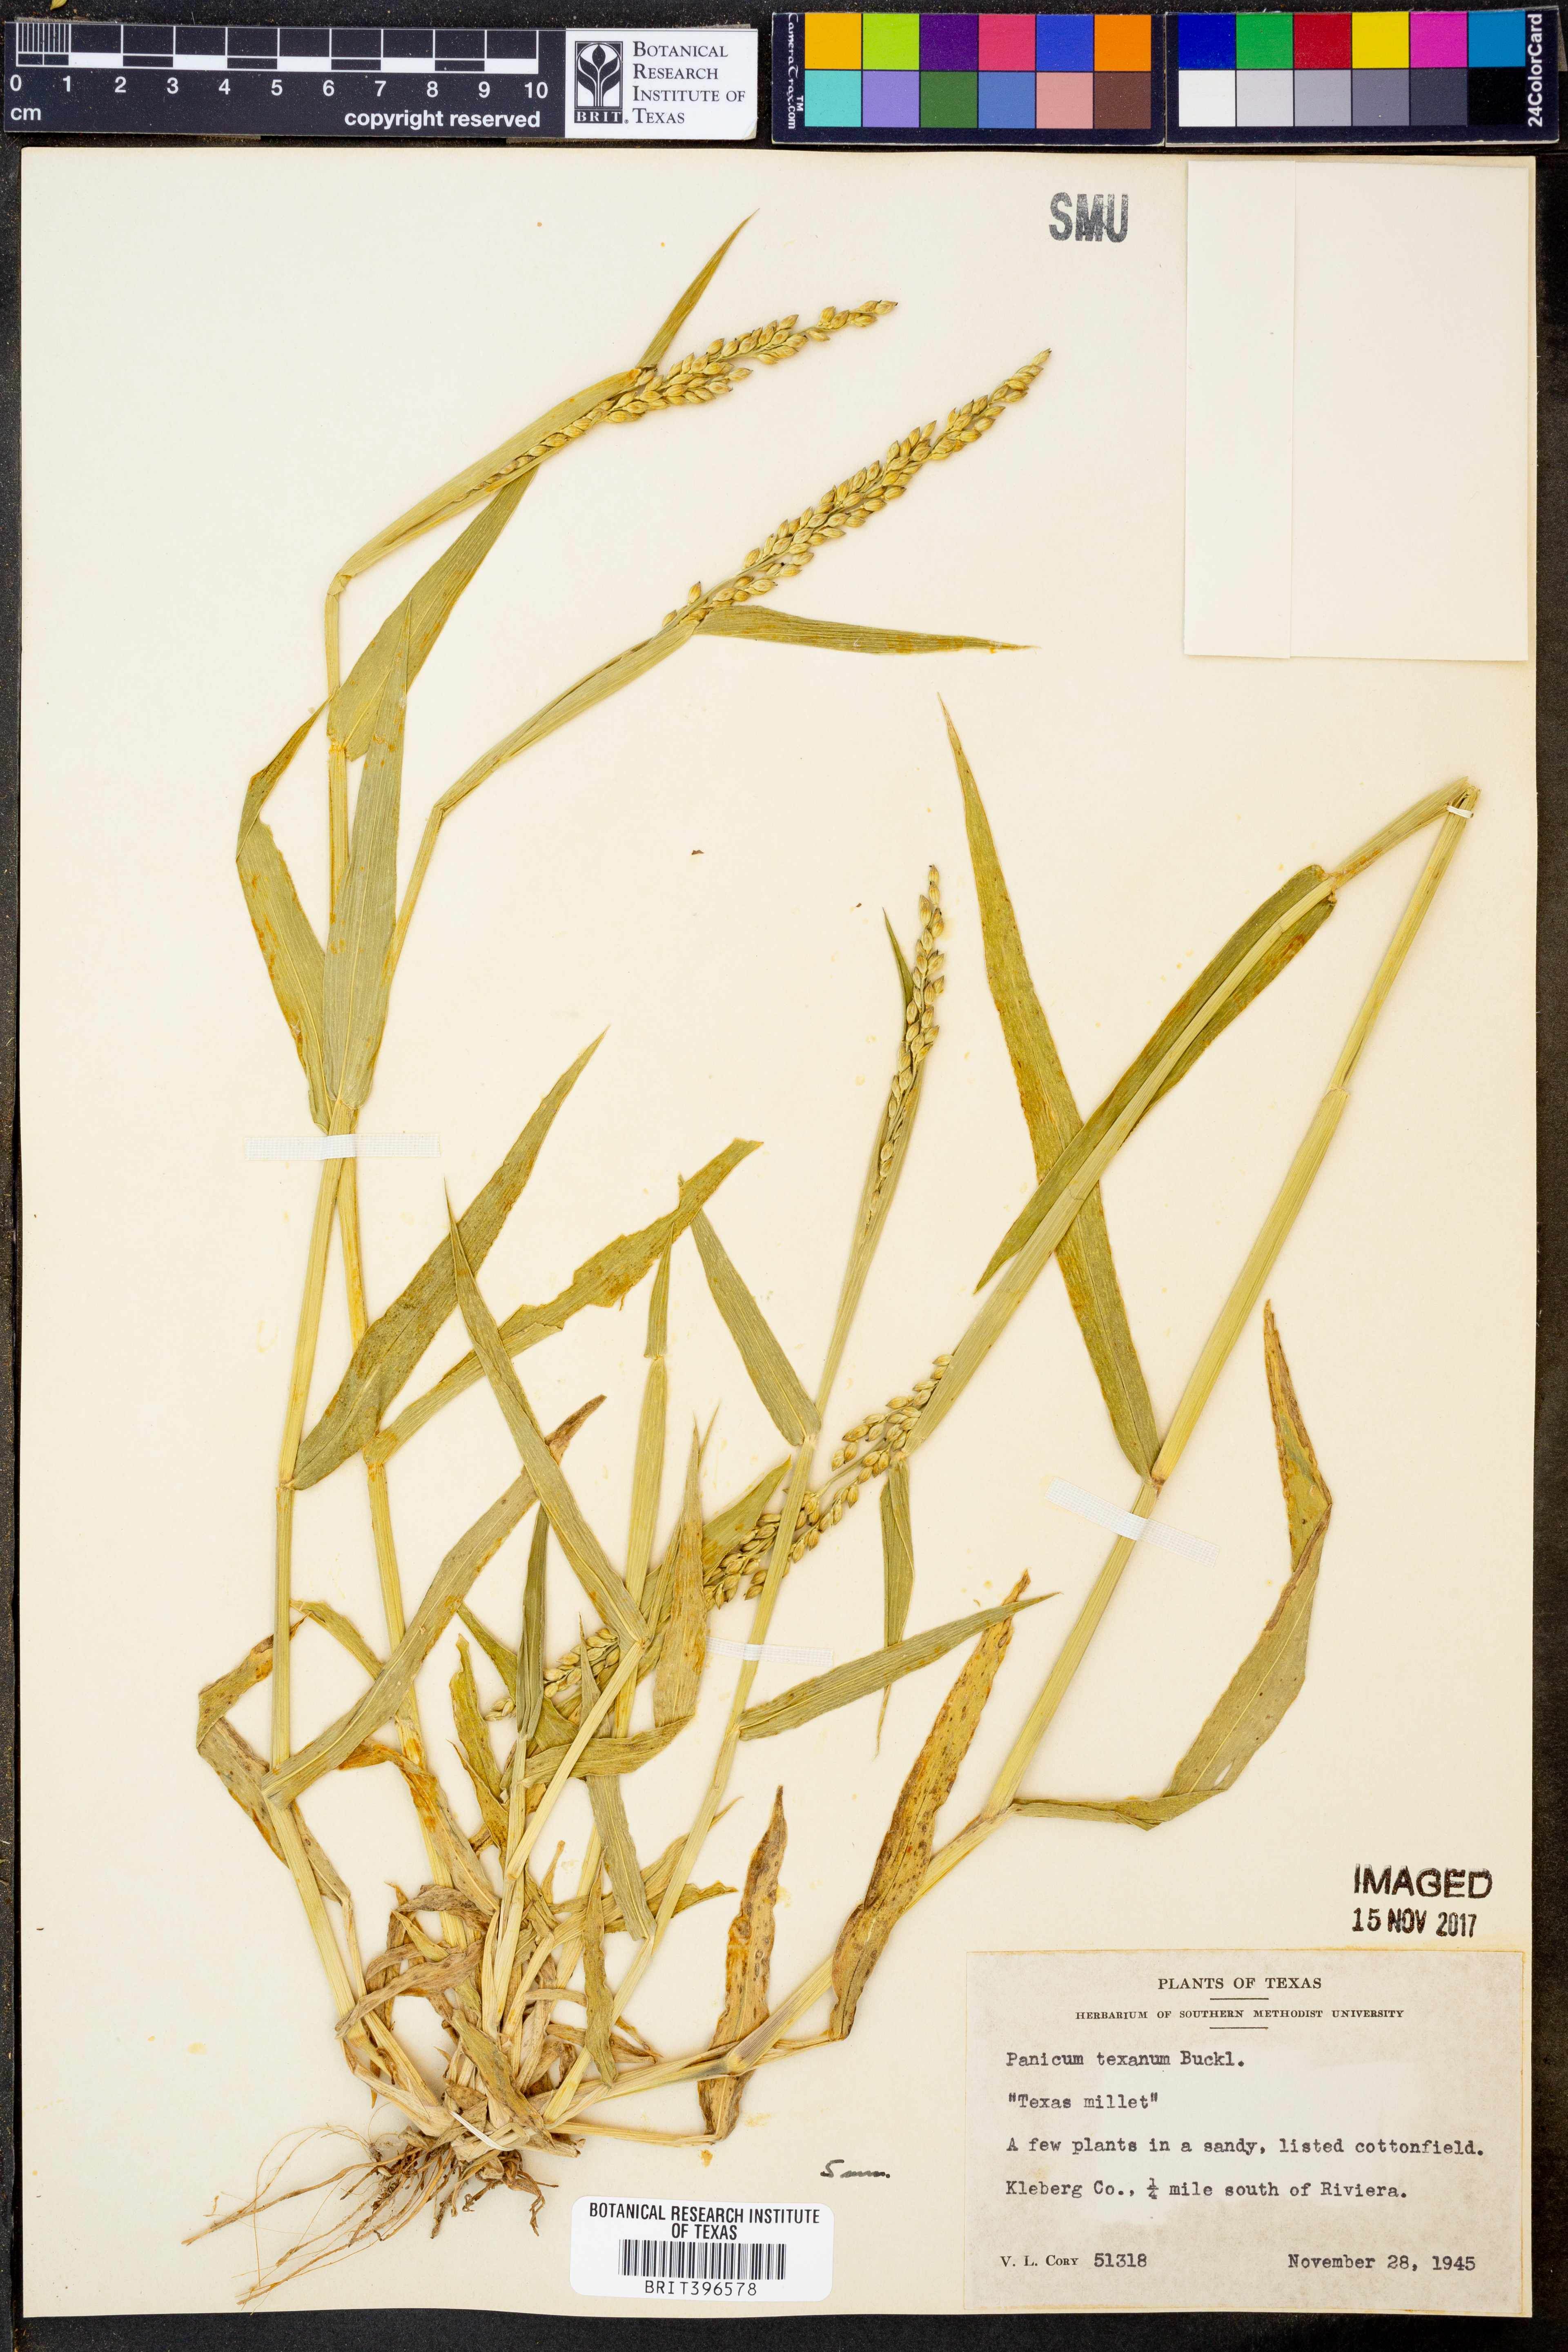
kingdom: Plantae
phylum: Tracheophyta
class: Liliopsida
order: Poales
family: Poaceae
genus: Urochloa
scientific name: Urochloa texana
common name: Texas millet
